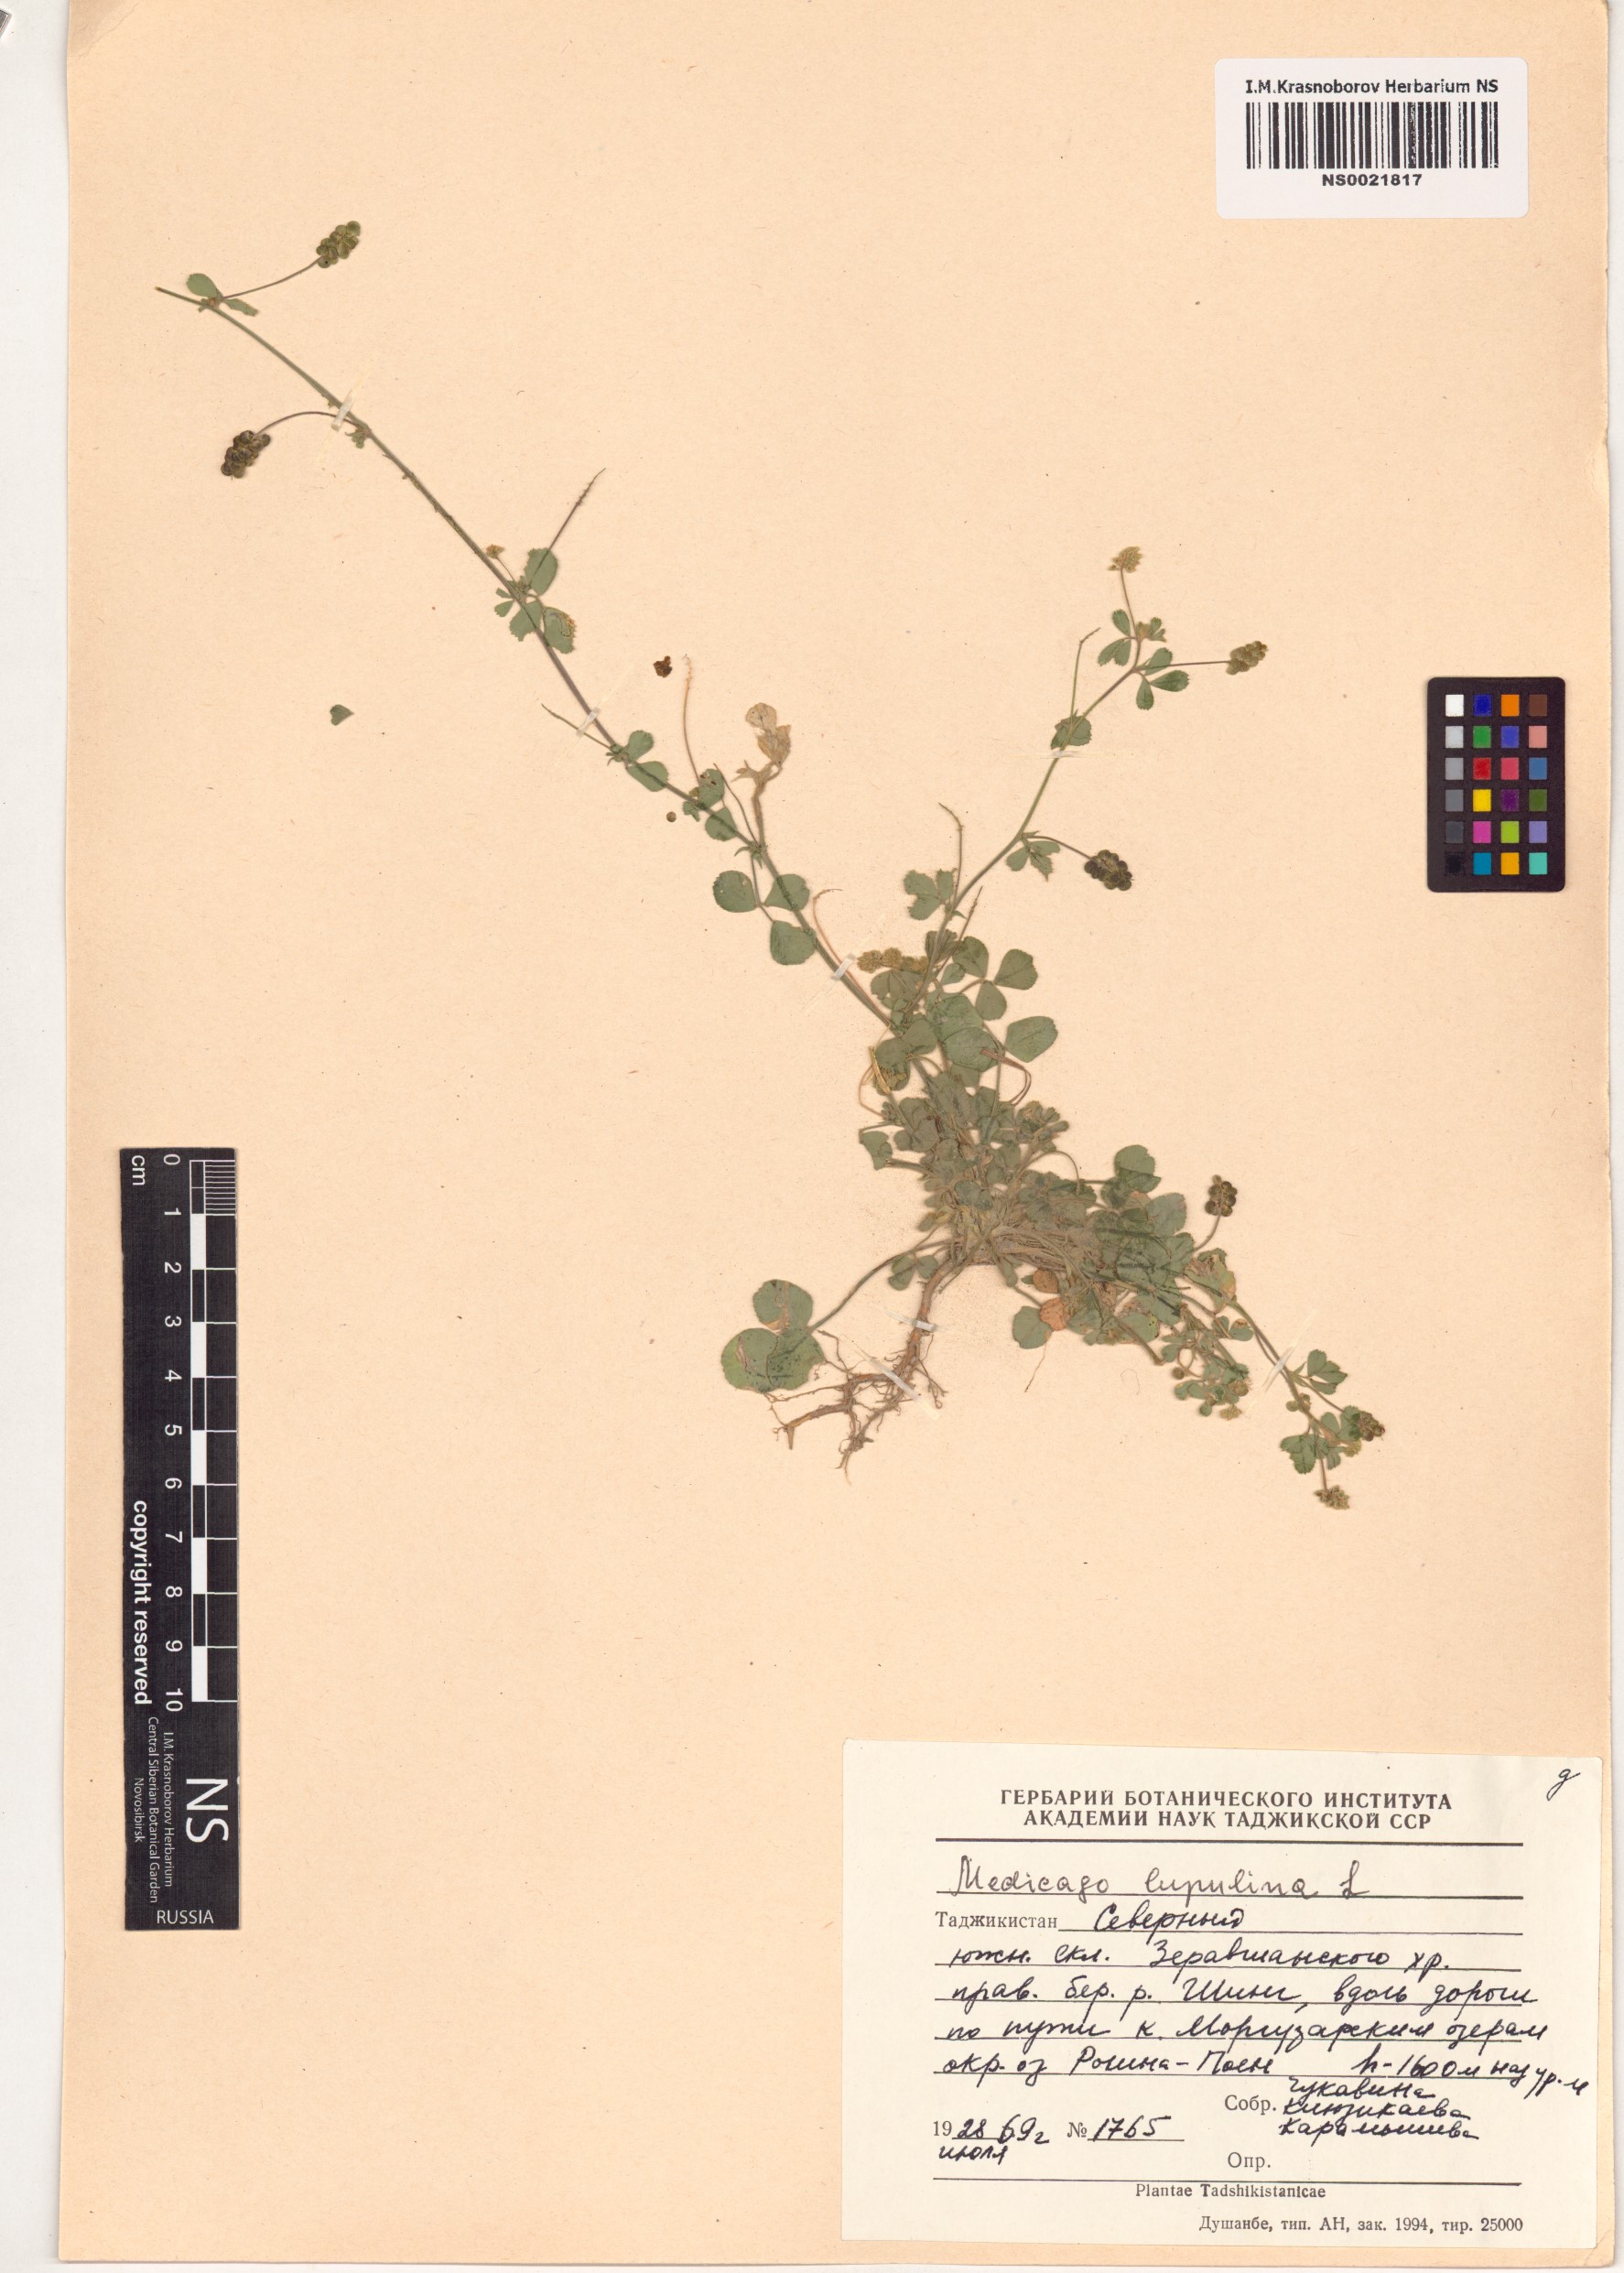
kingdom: Plantae
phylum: Tracheophyta
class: Magnoliopsida
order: Fabales
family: Fabaceae
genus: Medicago
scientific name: Medicago lupulina
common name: Black medick
